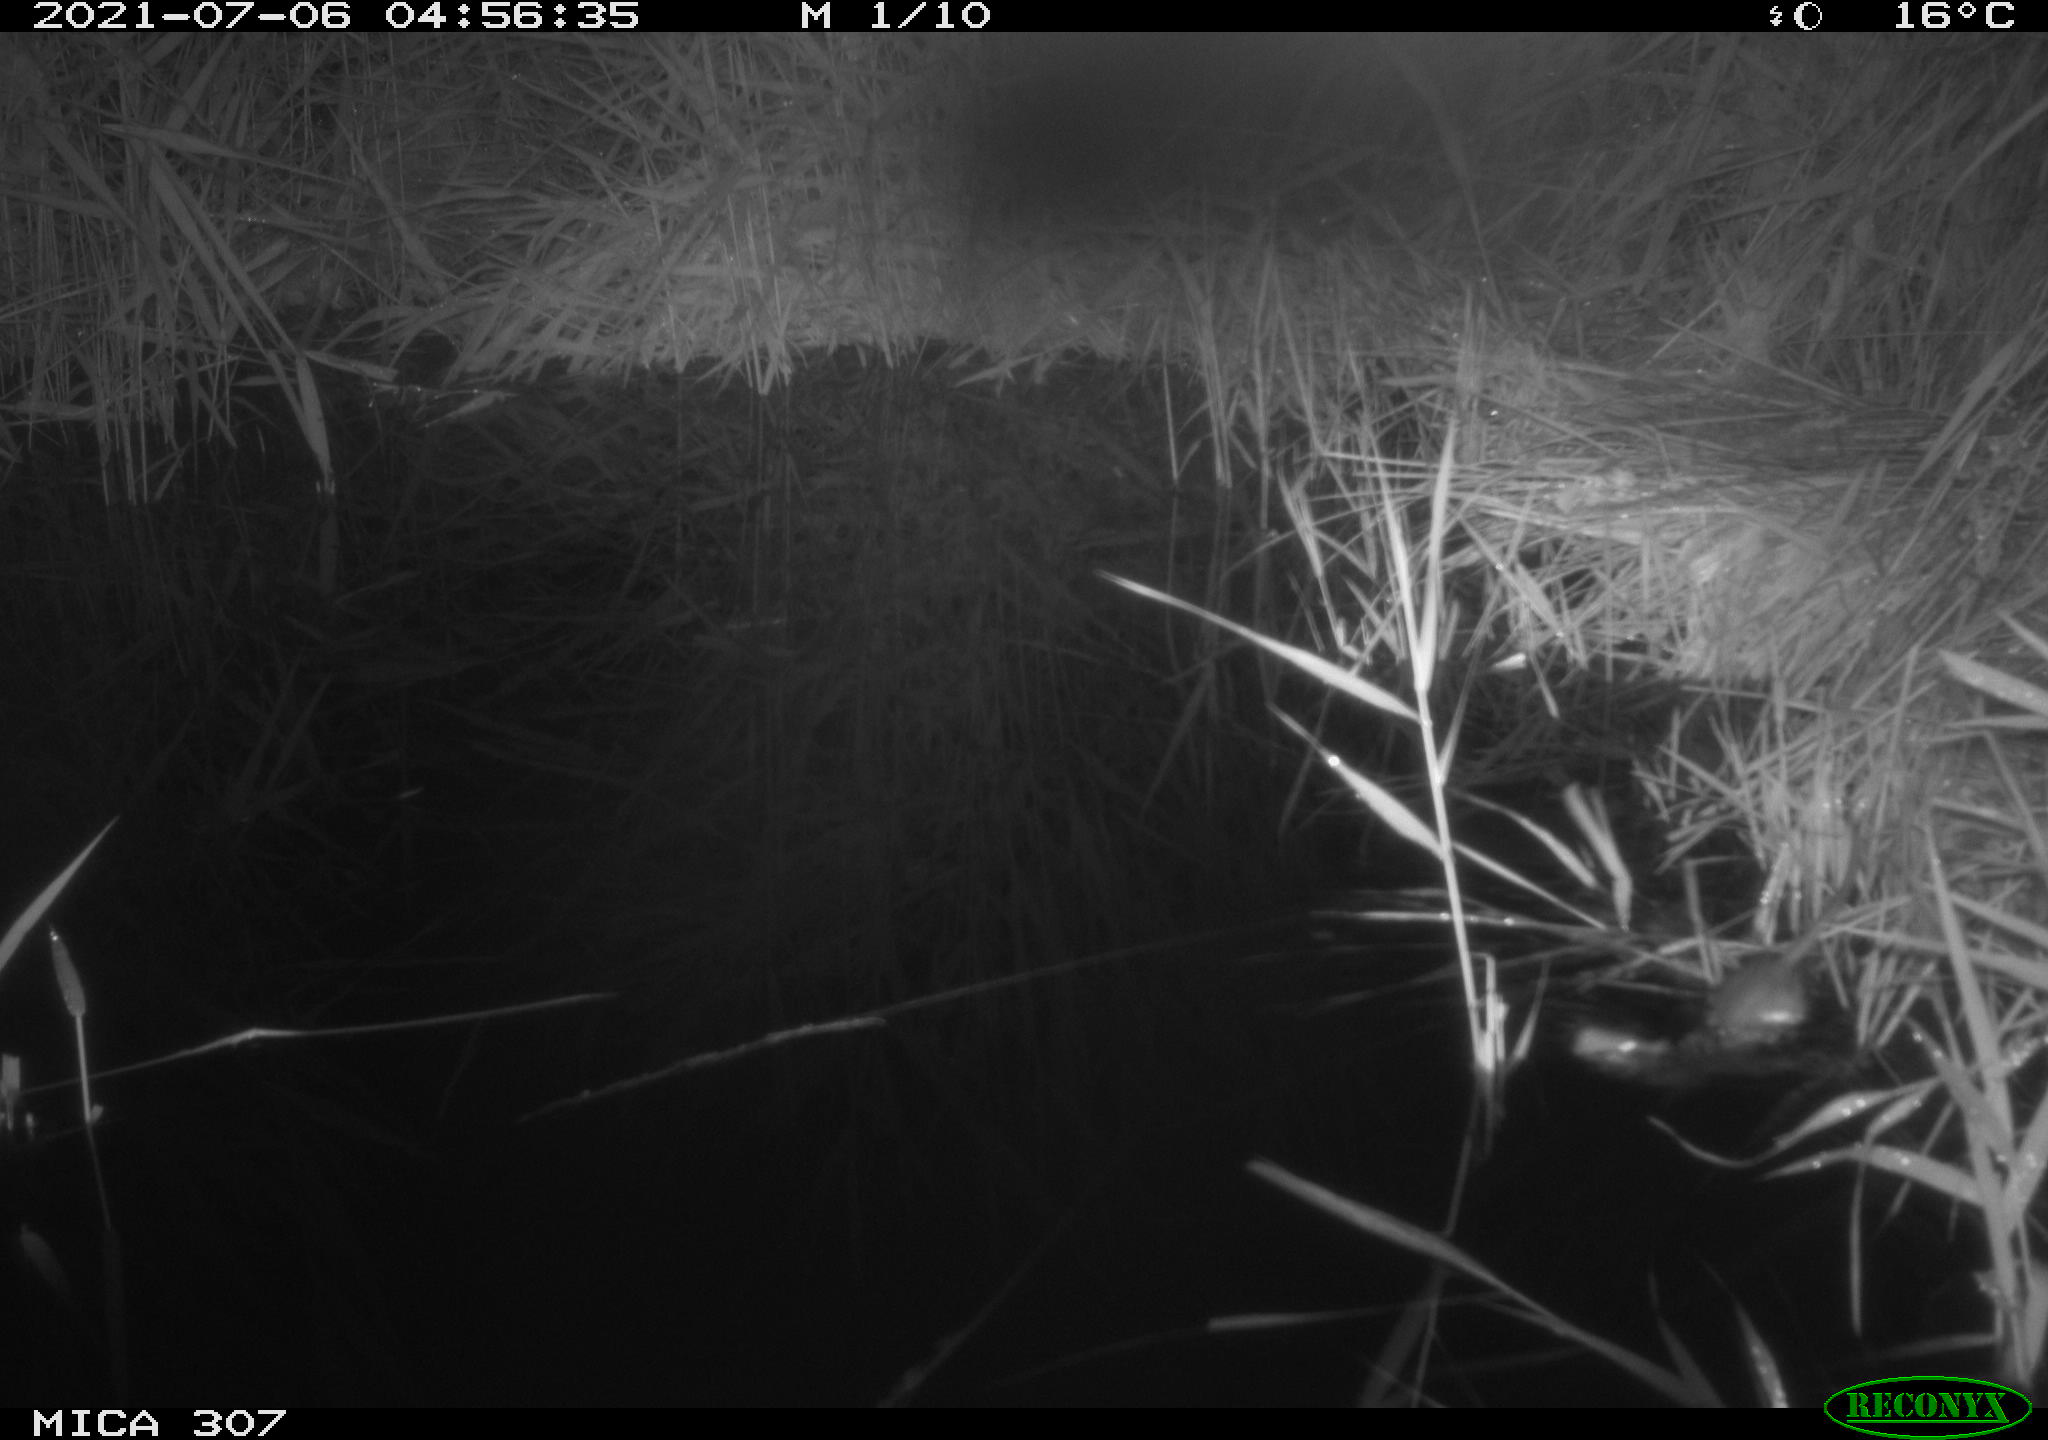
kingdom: Animalia
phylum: Chordata
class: Mammalia
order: Rodentia
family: Muridae
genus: Rattus
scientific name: Rattus norvegicus
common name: Brown rat
